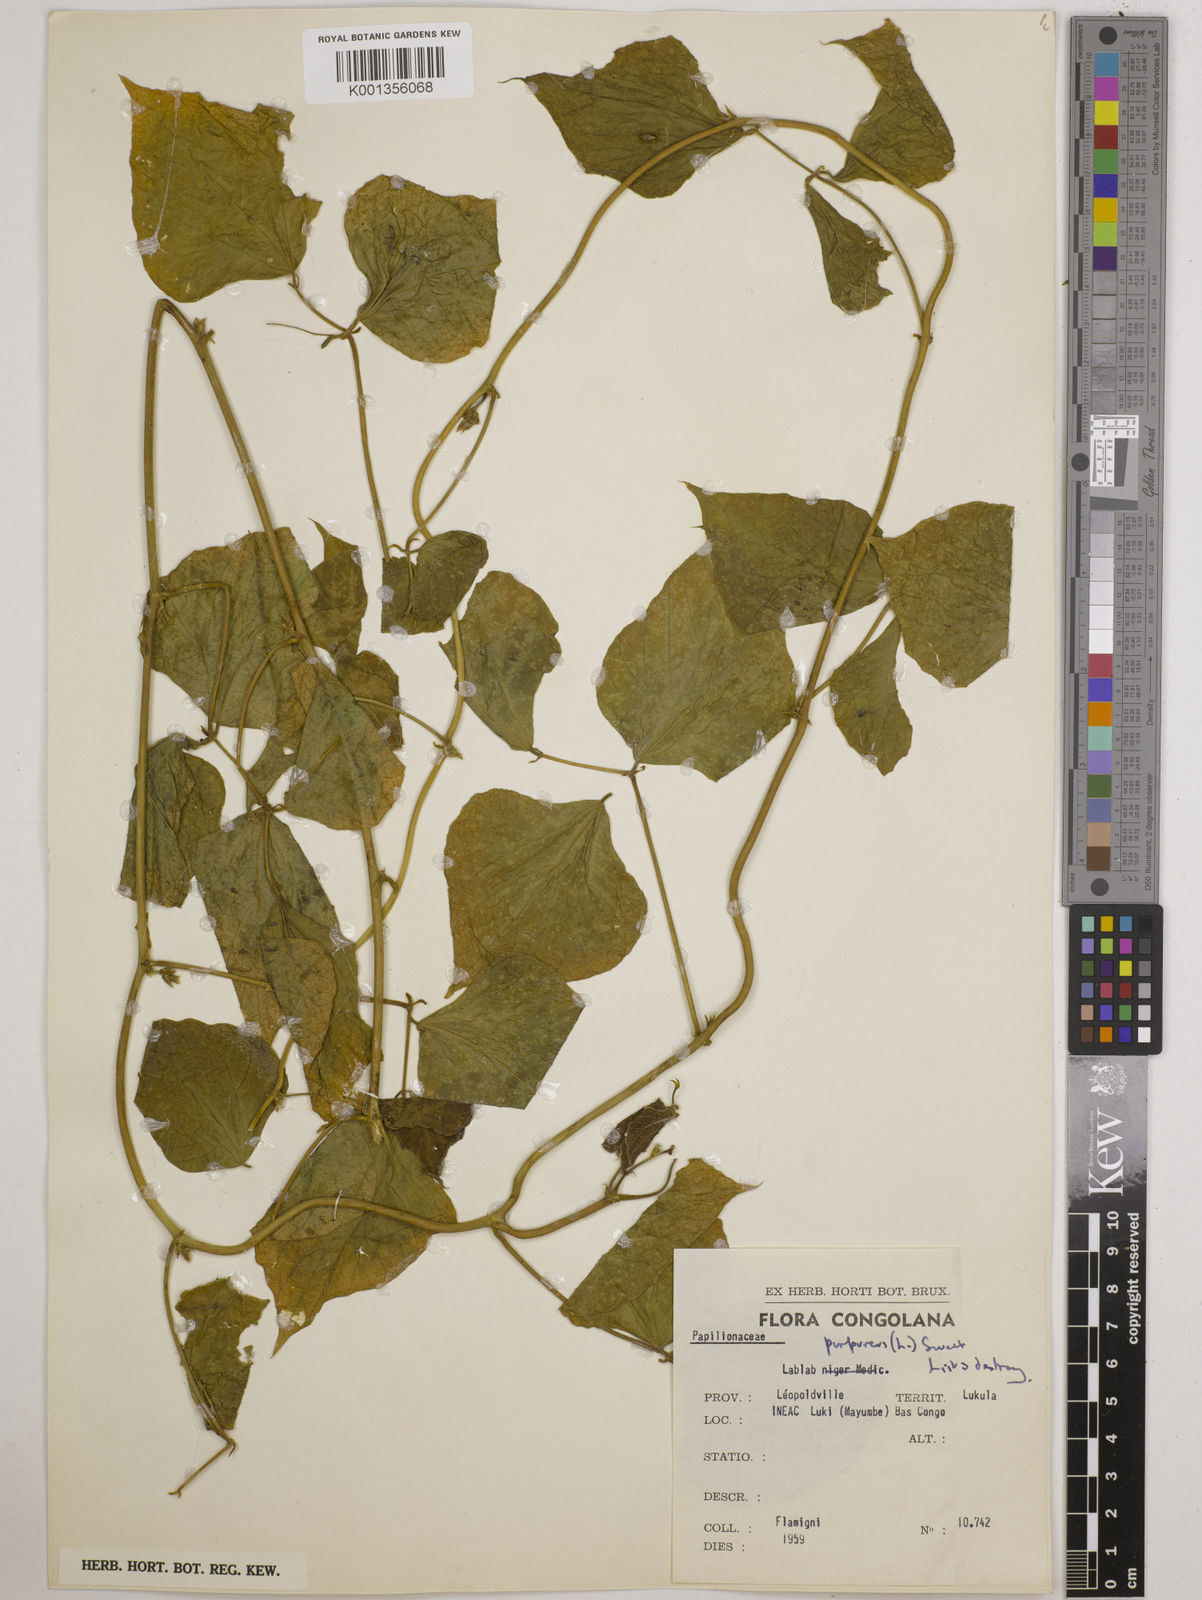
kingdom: Plantae
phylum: Tracheophyta
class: Magnoliopsida
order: Fabales
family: Fabaceae
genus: Lablab
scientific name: Lablab purpureus
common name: Lablab-bean
